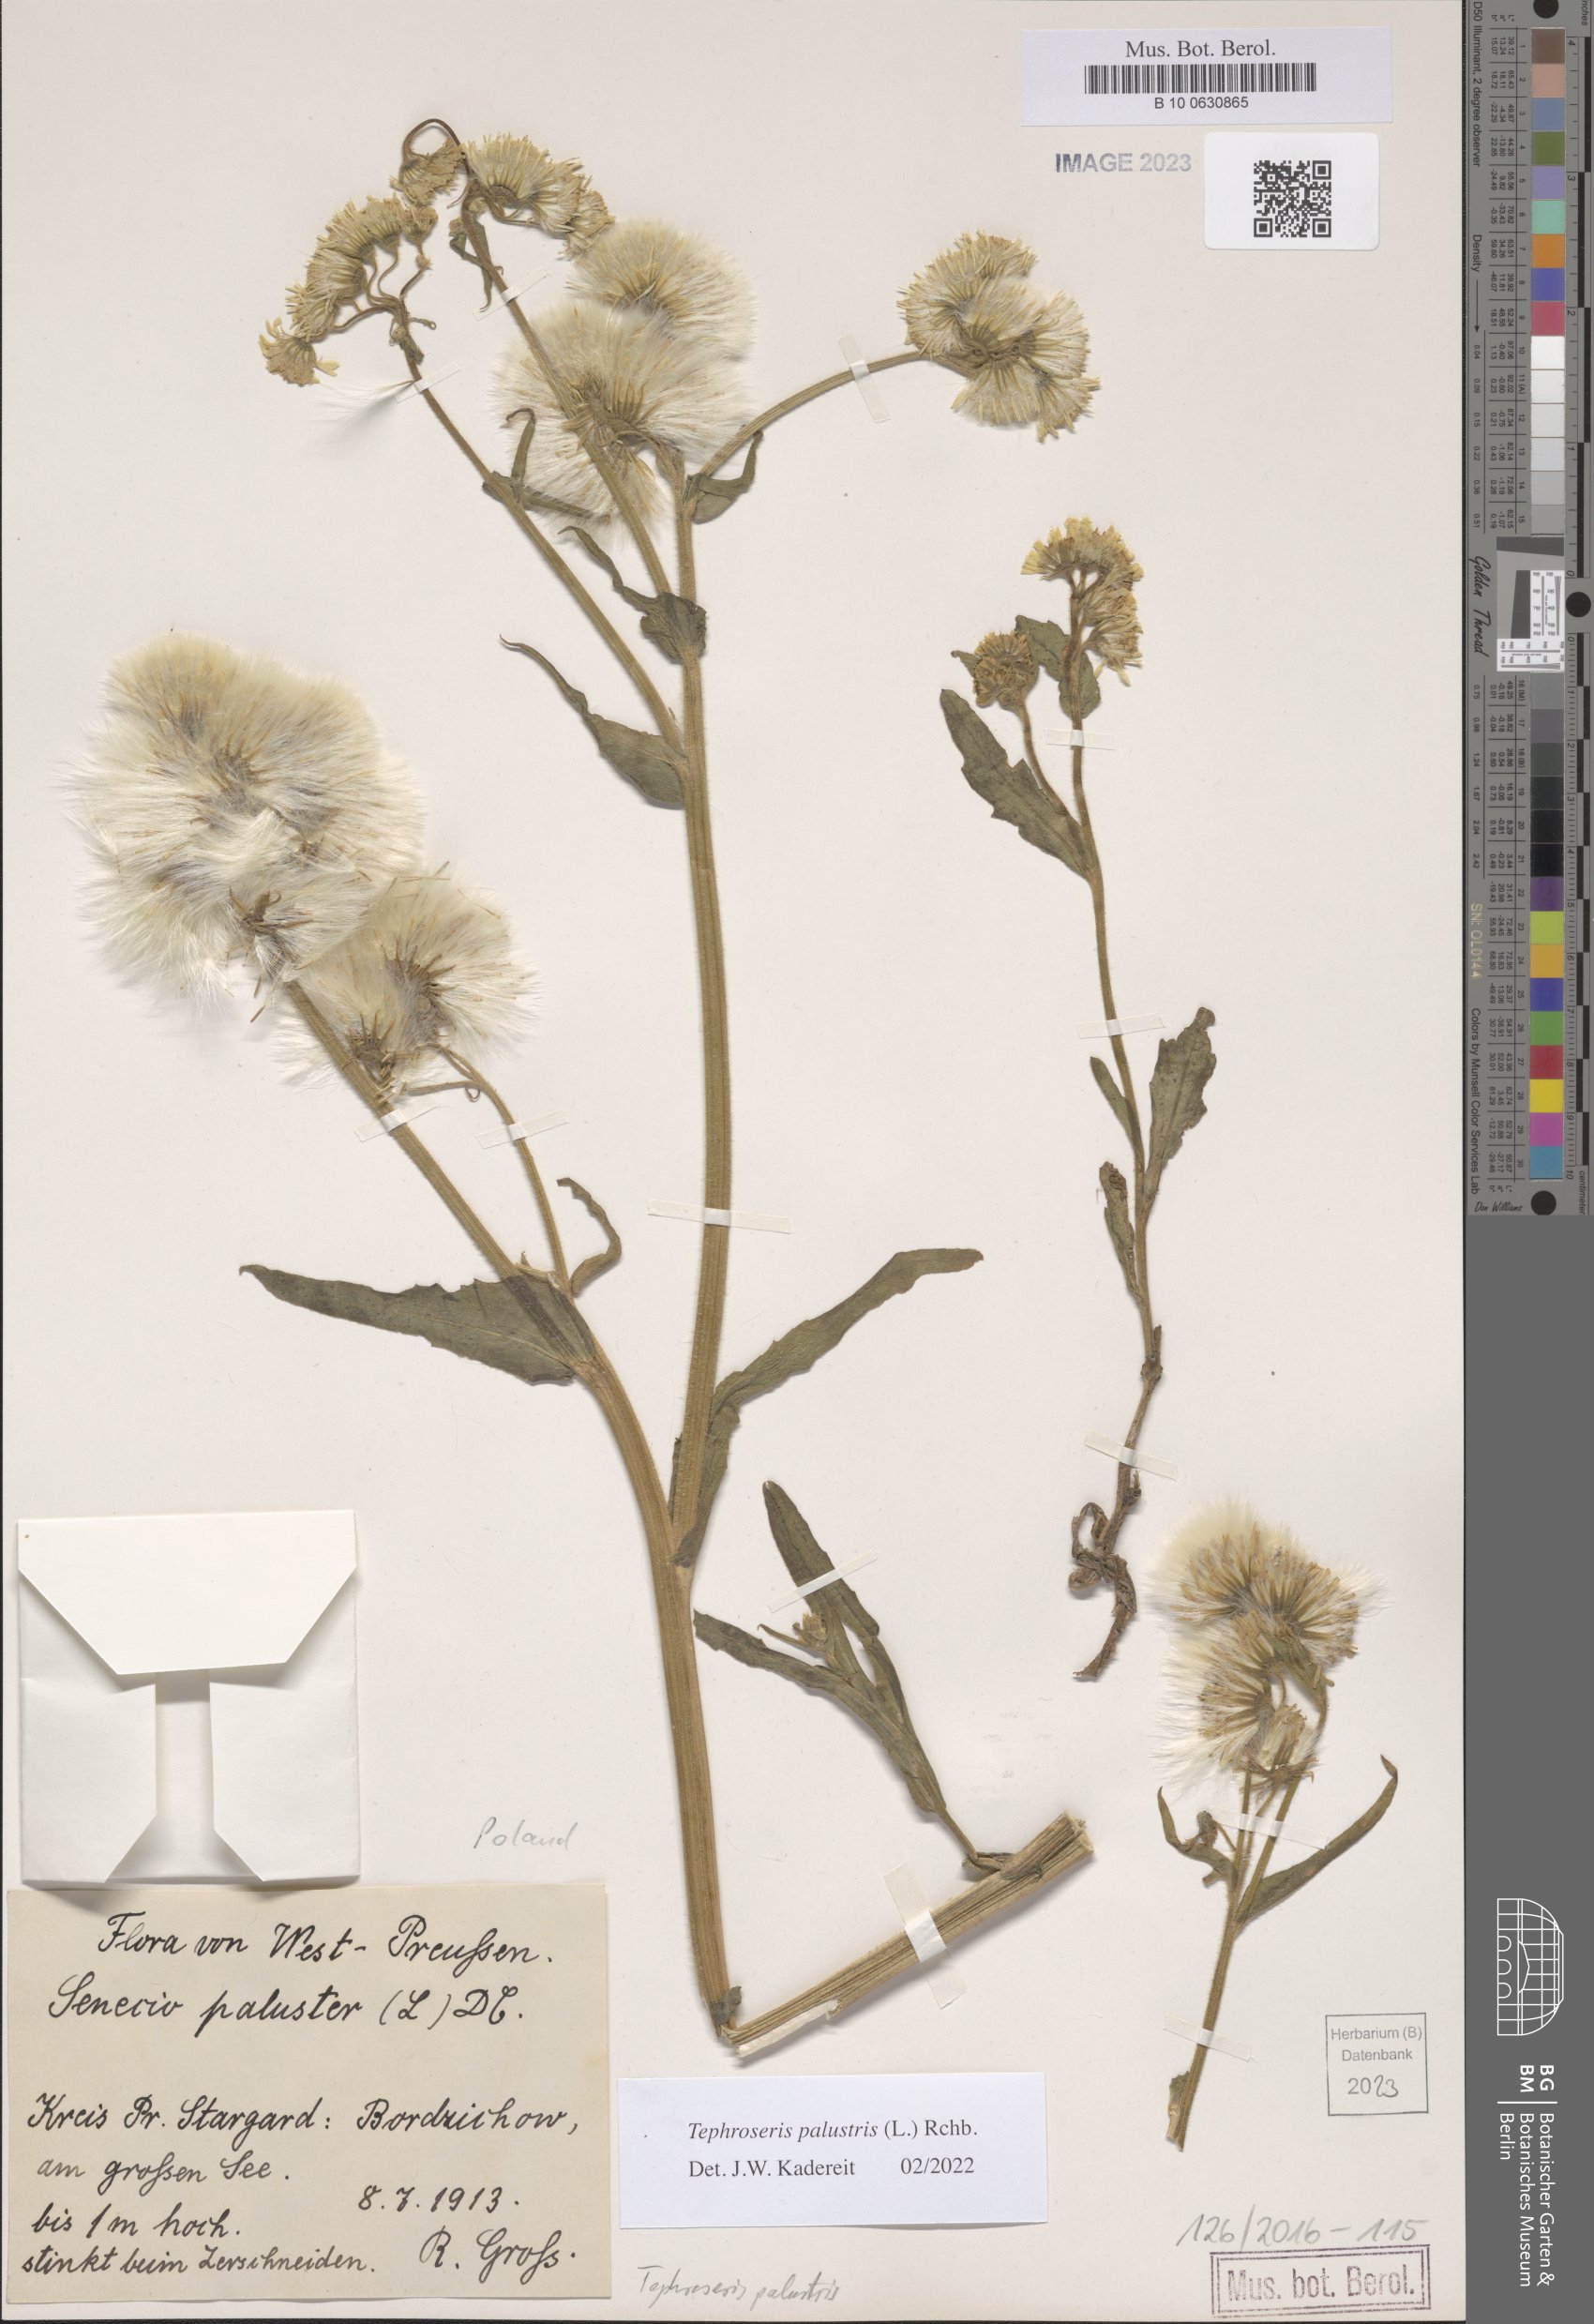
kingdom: Plantae
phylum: Tracheophyta
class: Magnoliopsida
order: Asterales
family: Asteraceae
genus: Tephroseris
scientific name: Tephroseris palustris
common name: Marsh fleawort
